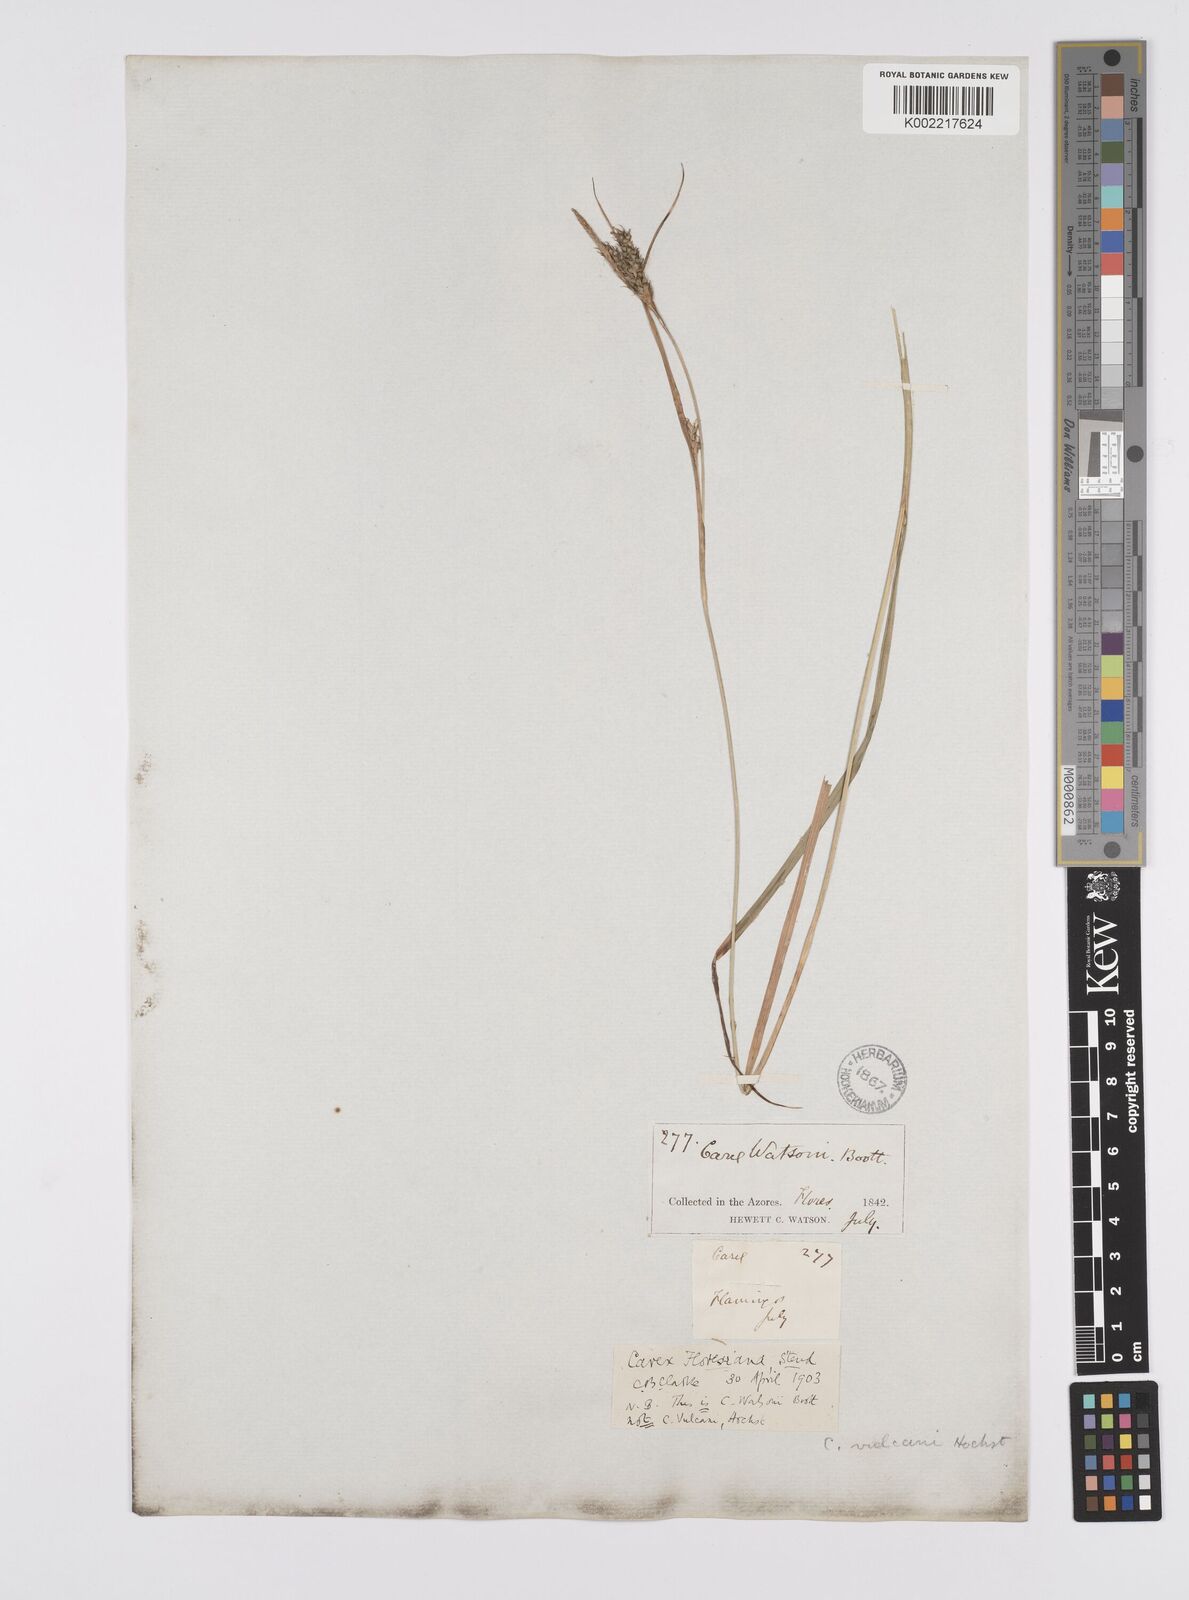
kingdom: Plantae
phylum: Tracheophyta
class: Liliopsida
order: Poales
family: Cyperaceae
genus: Carex
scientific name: Carex vulcani
